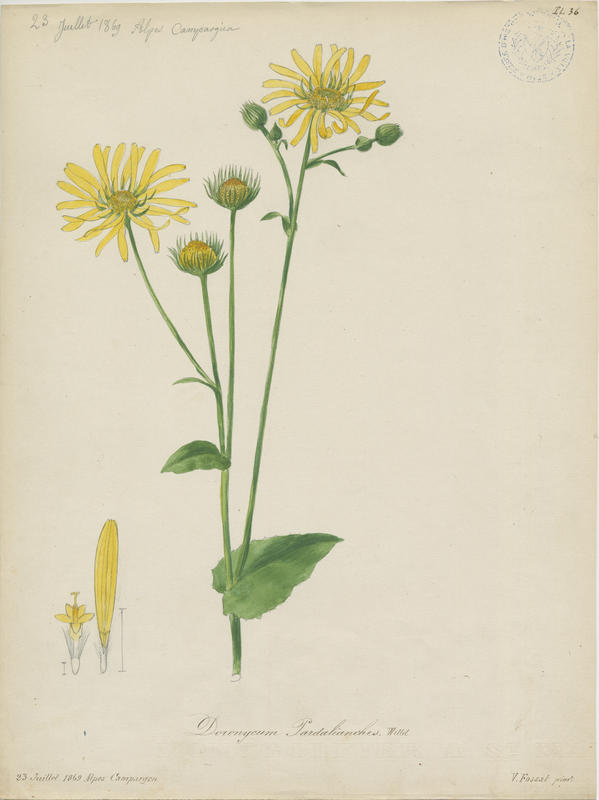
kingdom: Plantae
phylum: Tracheophyta
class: Magnoliopsida
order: Asterales
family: Asteraceae
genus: Doronicum
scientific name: Doronicum pardalianches
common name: Leopard's-bane
